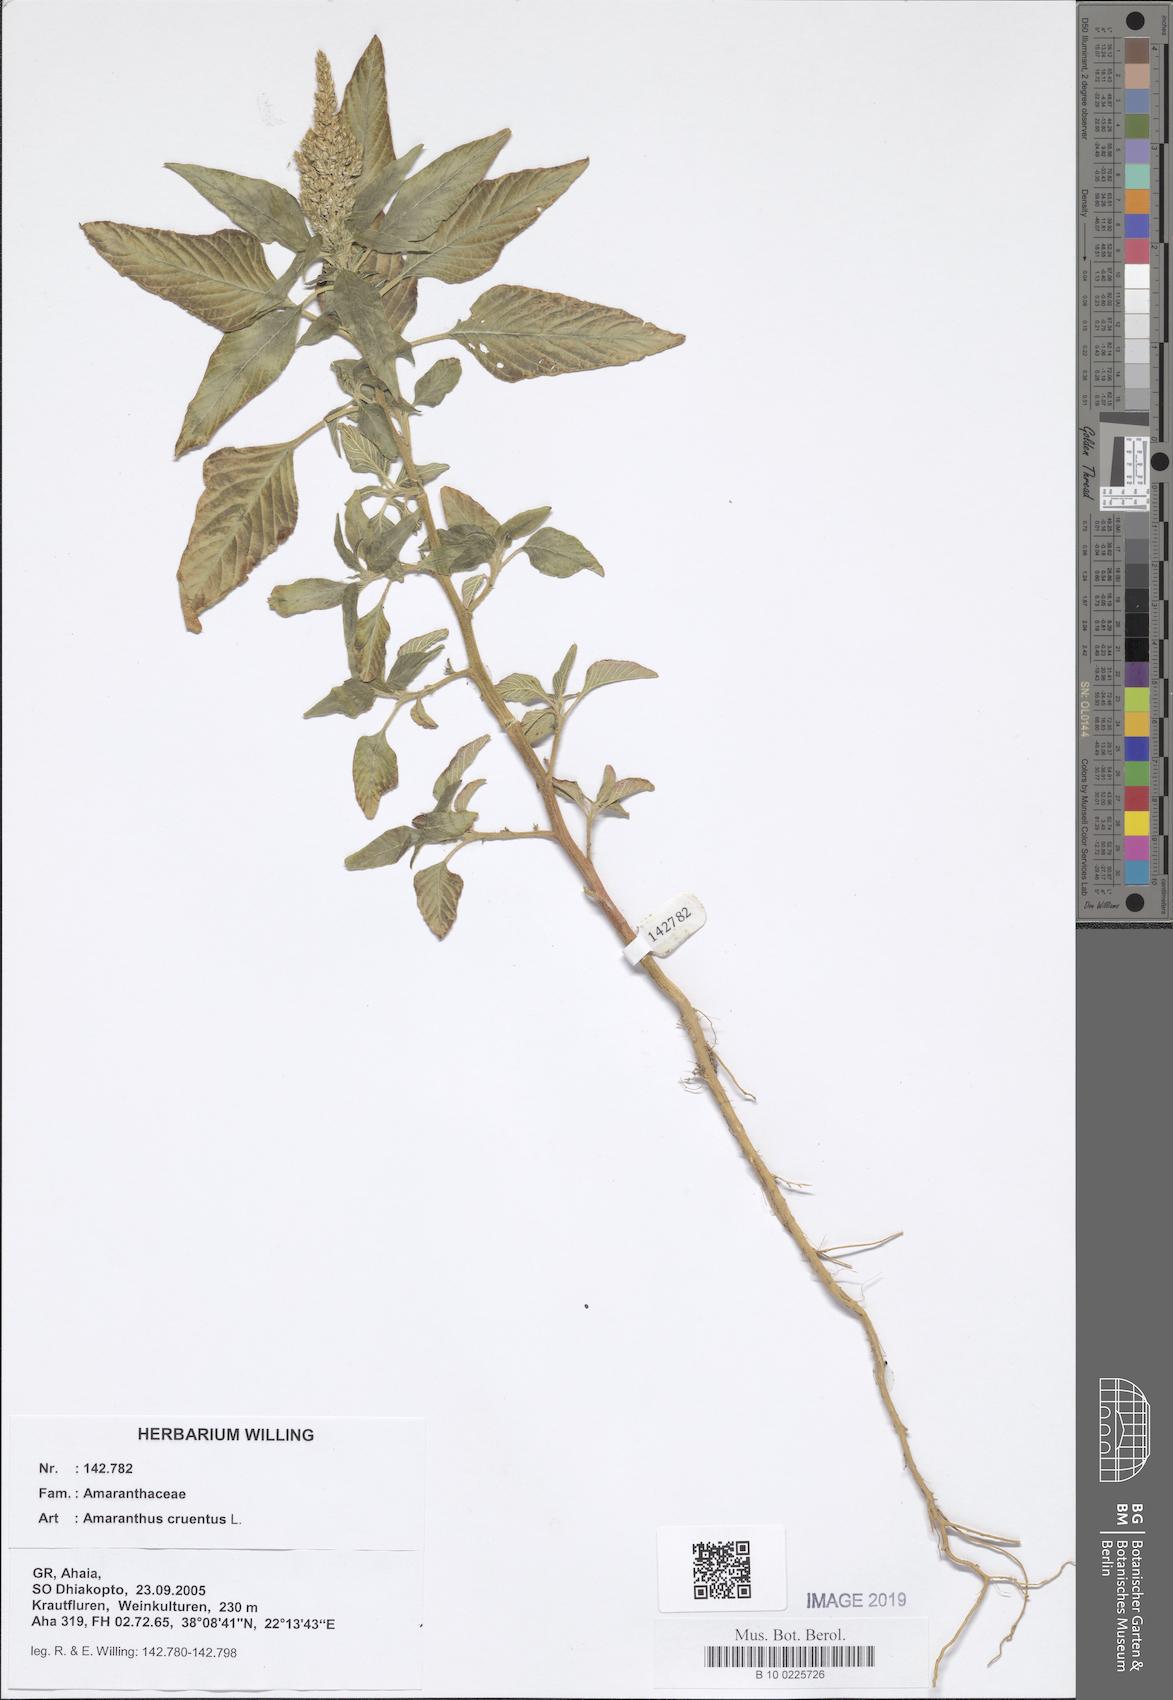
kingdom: Plantae
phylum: Tracheophyta
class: Magnoliopsida
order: Caryophyllales
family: Amaranthaceae
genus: Amaranthus
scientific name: Amaranthus cruentus
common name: Purple amaranth
